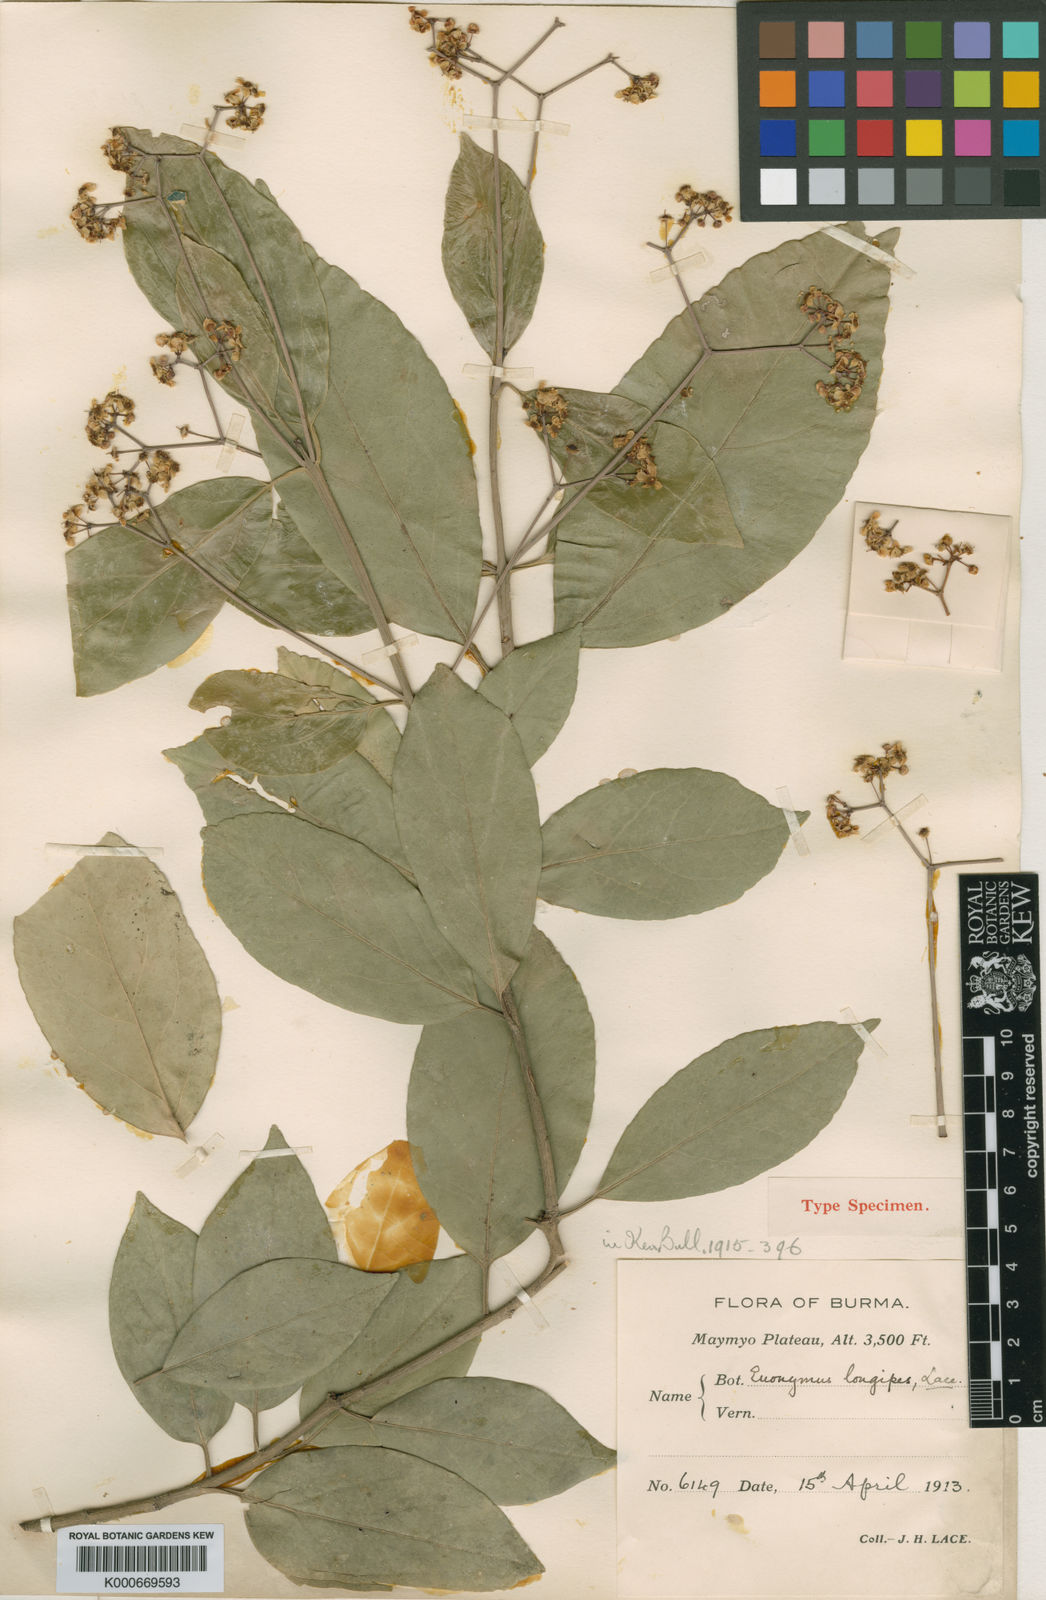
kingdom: Plantae
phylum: Tracheophyta
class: Magnoliopsida
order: Celastrales
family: Celastraceae
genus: Euonymus
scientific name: Euonymus acanthocarpus
